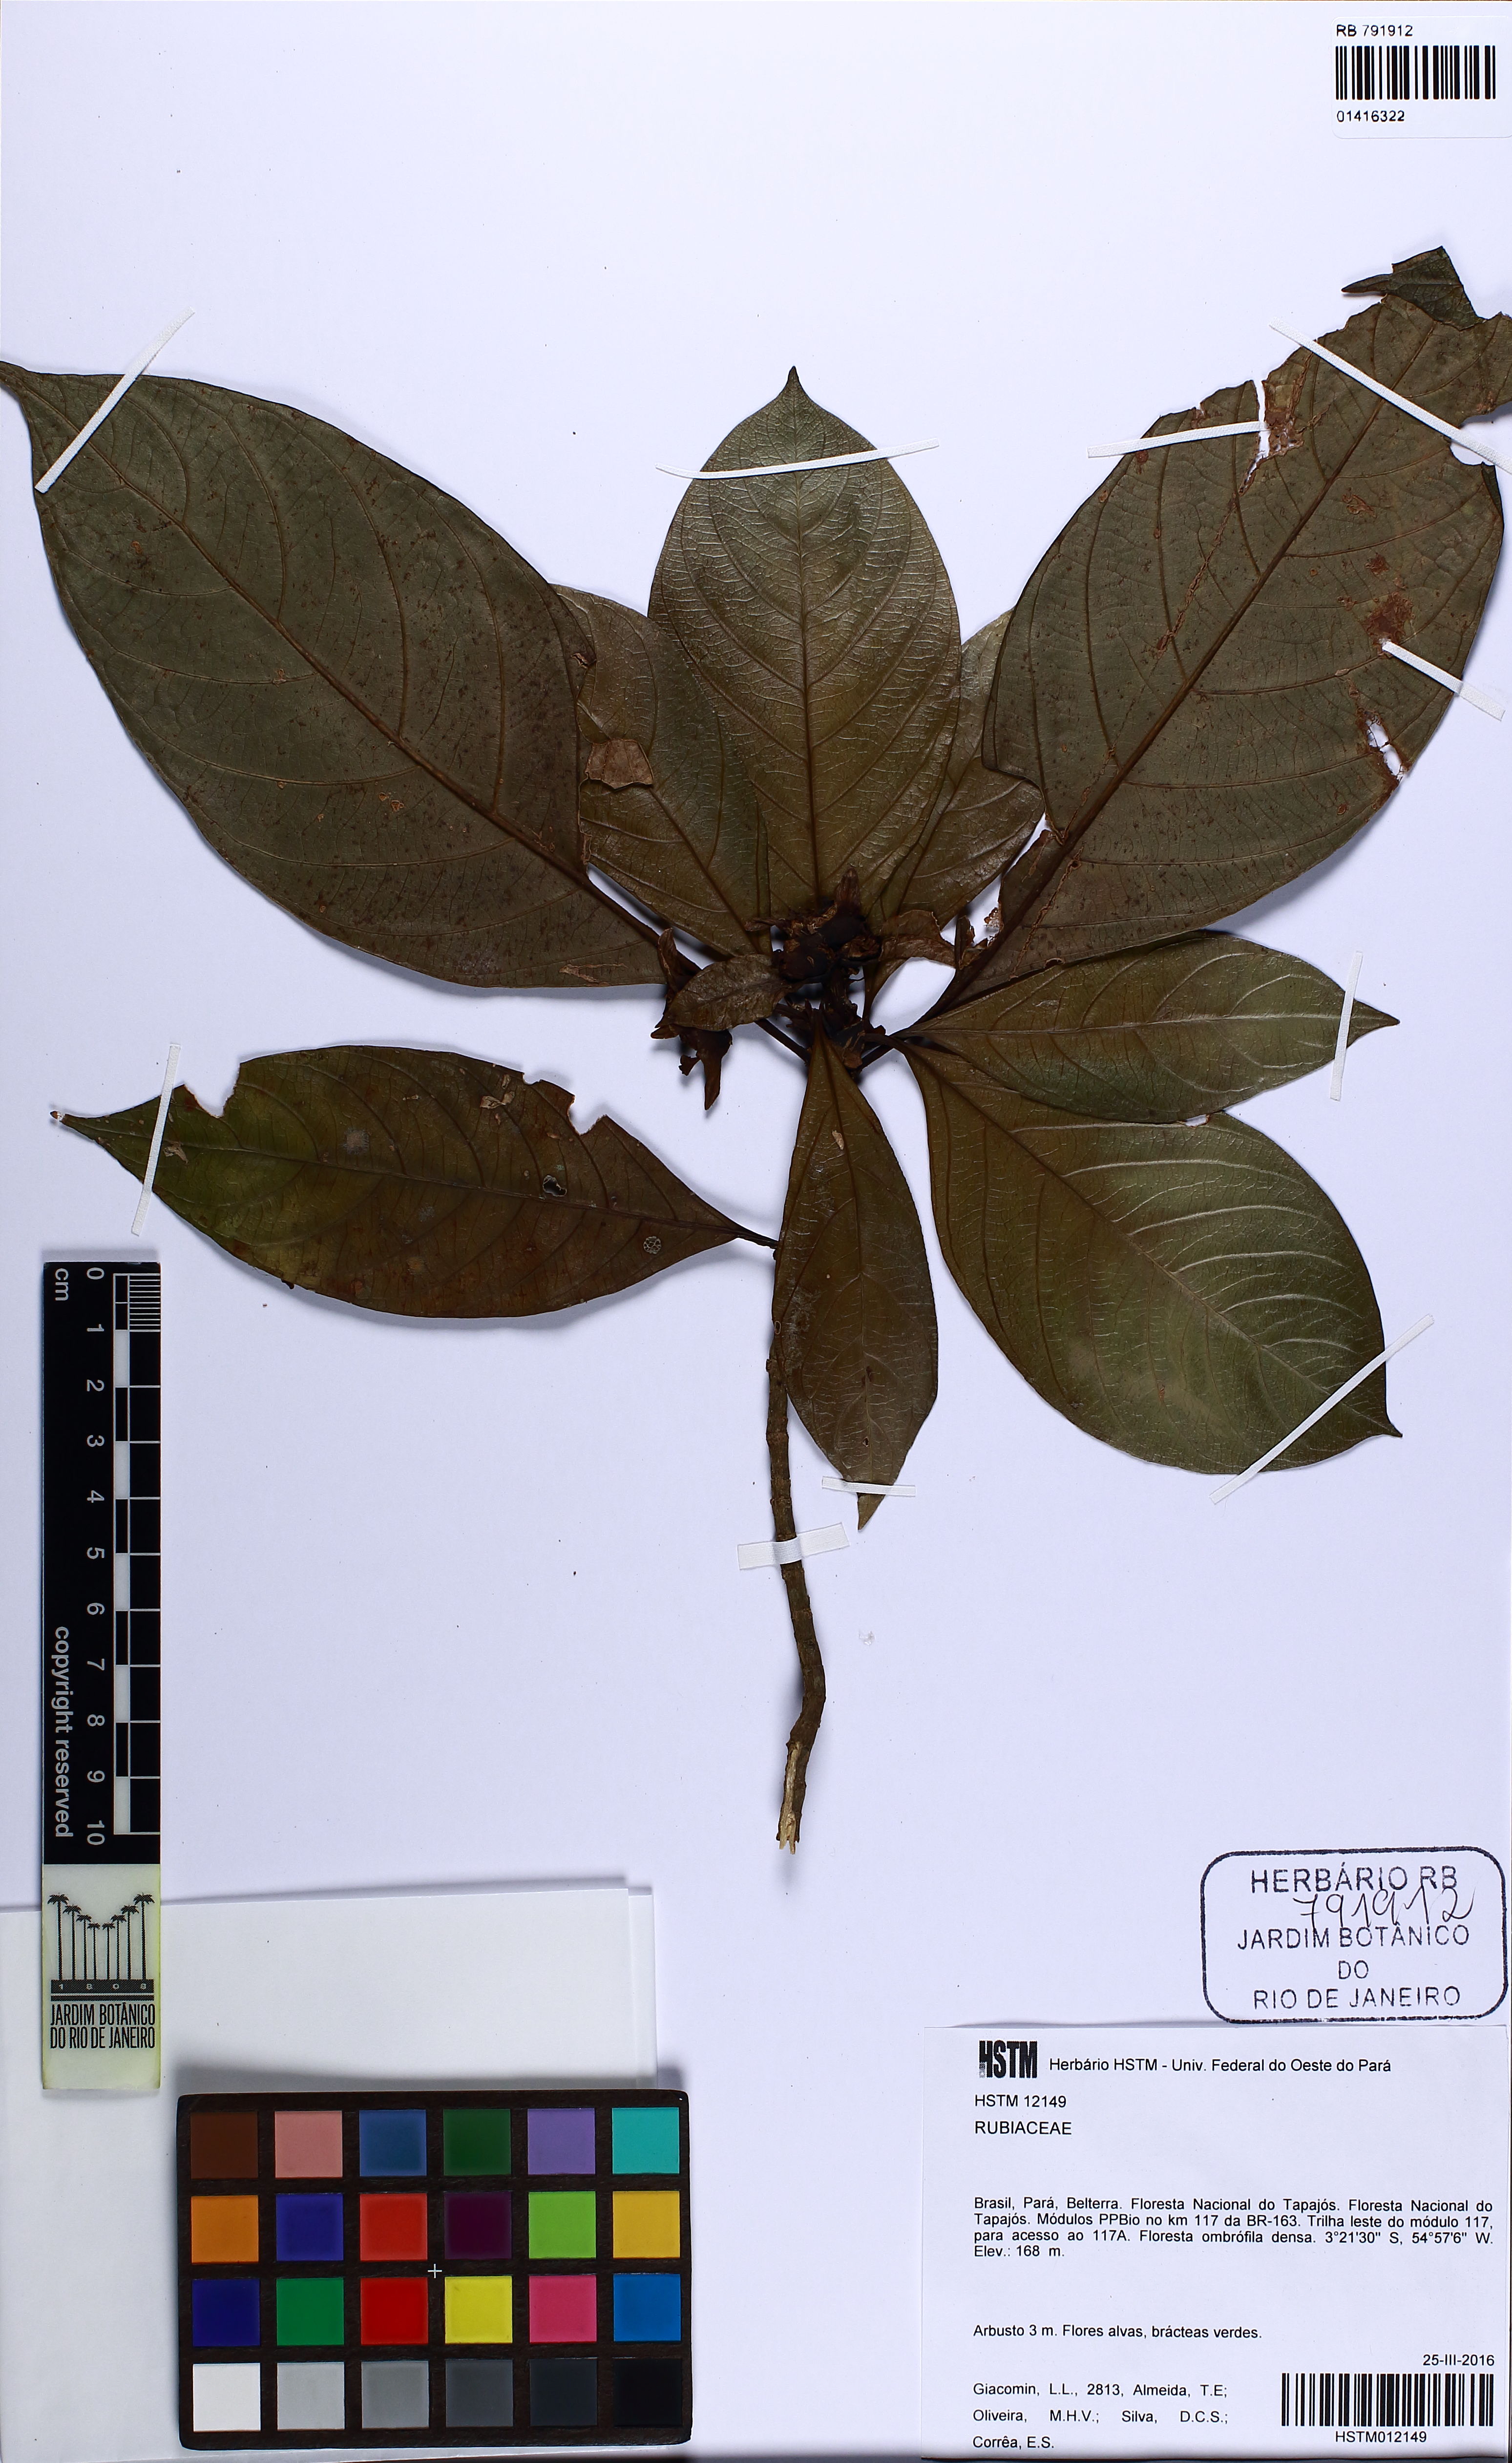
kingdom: Plantae
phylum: Tracheophyta
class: Magnoliopsida
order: Gentianales
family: Rubiaceae
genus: Carapichea
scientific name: Carapichea guianensis
